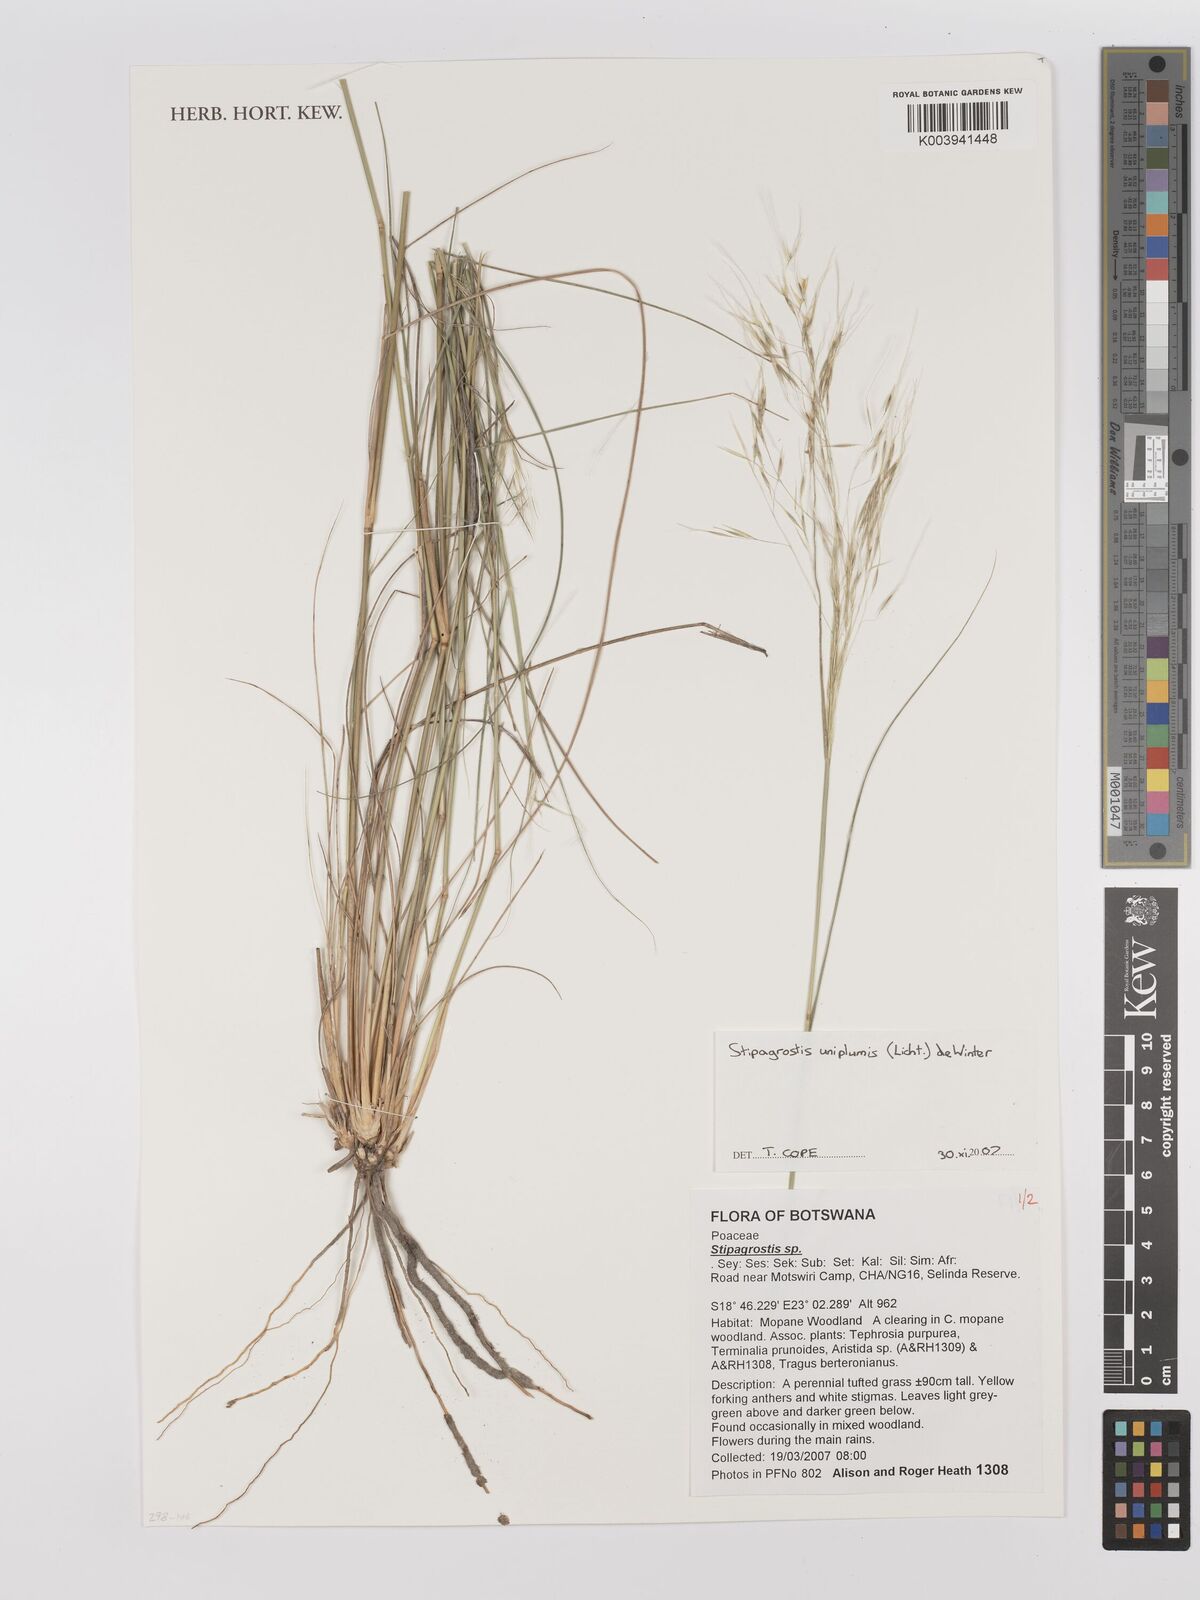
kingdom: Plantae
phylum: Tracheophyta
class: Liliopsida
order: Poales
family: Poaceae
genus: Stipagrostis
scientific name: Stipagrostis uniplumis
